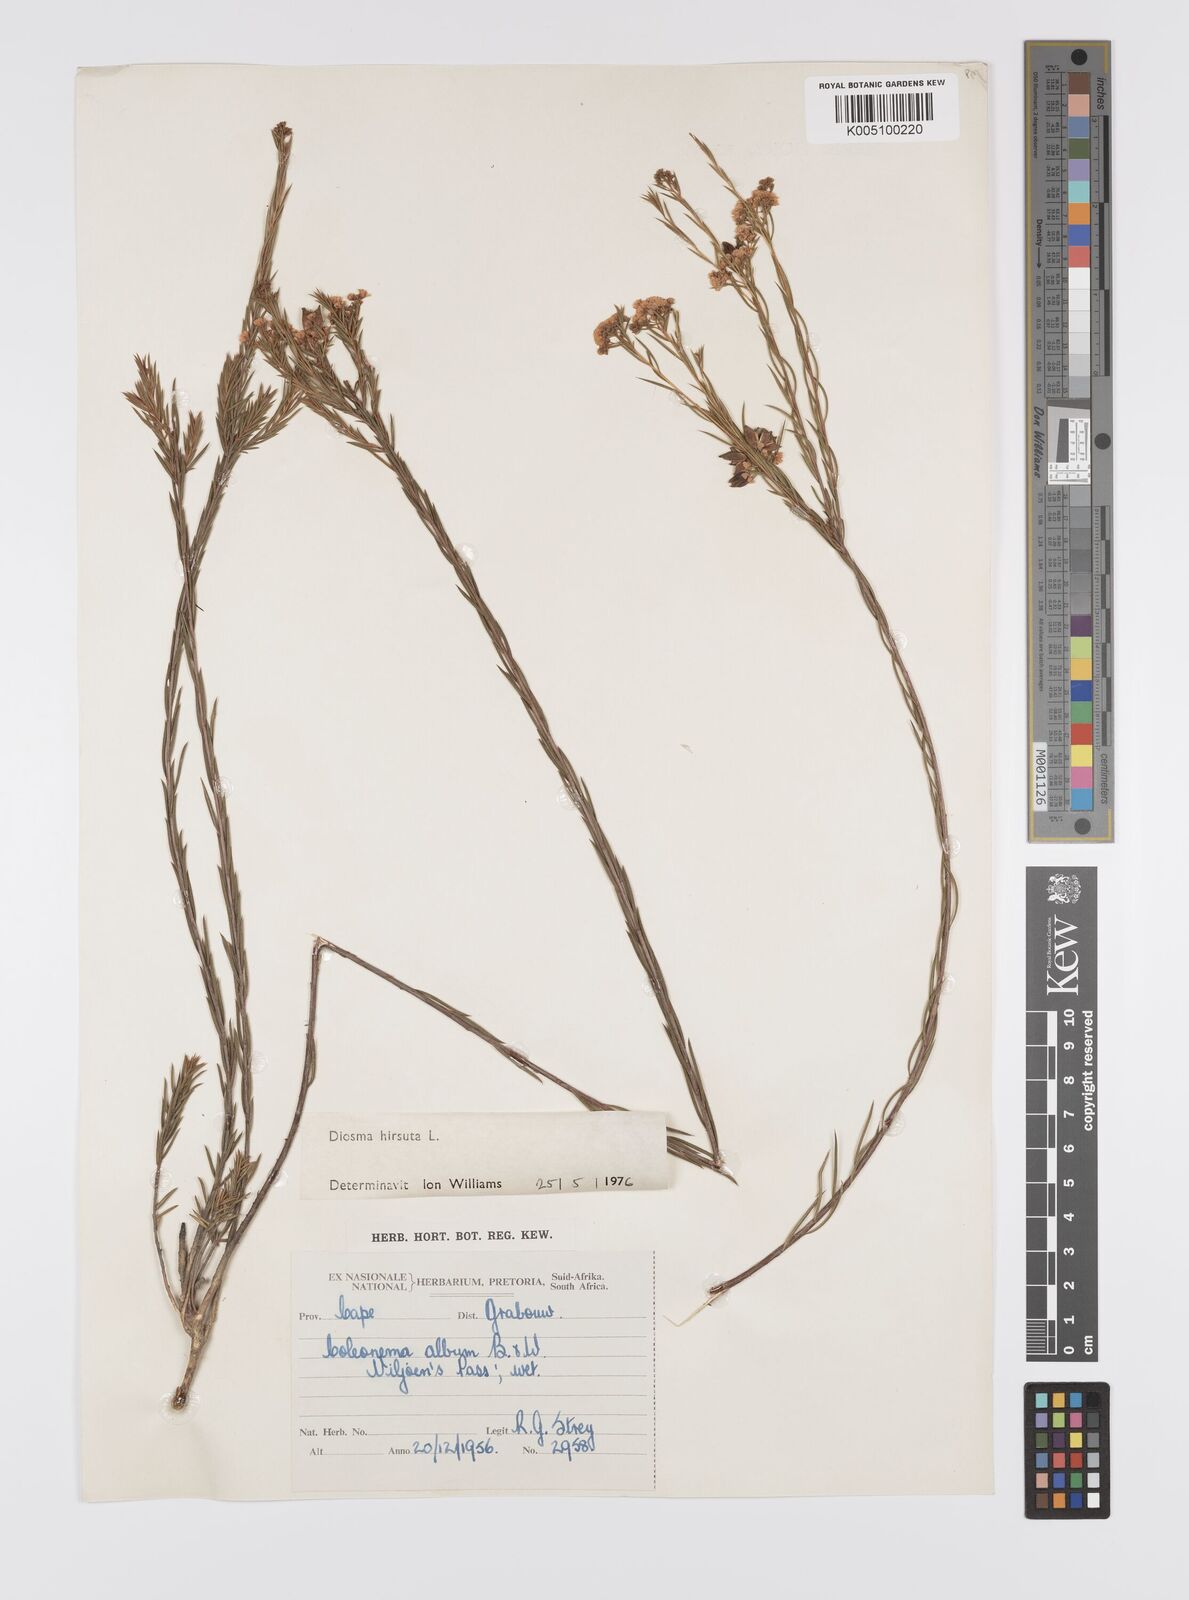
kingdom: Plantae
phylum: Tracheophyta
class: Magnoliopsida
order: Sapindales
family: Rutaceae
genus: Diosma
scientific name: Diosma hirsuta
